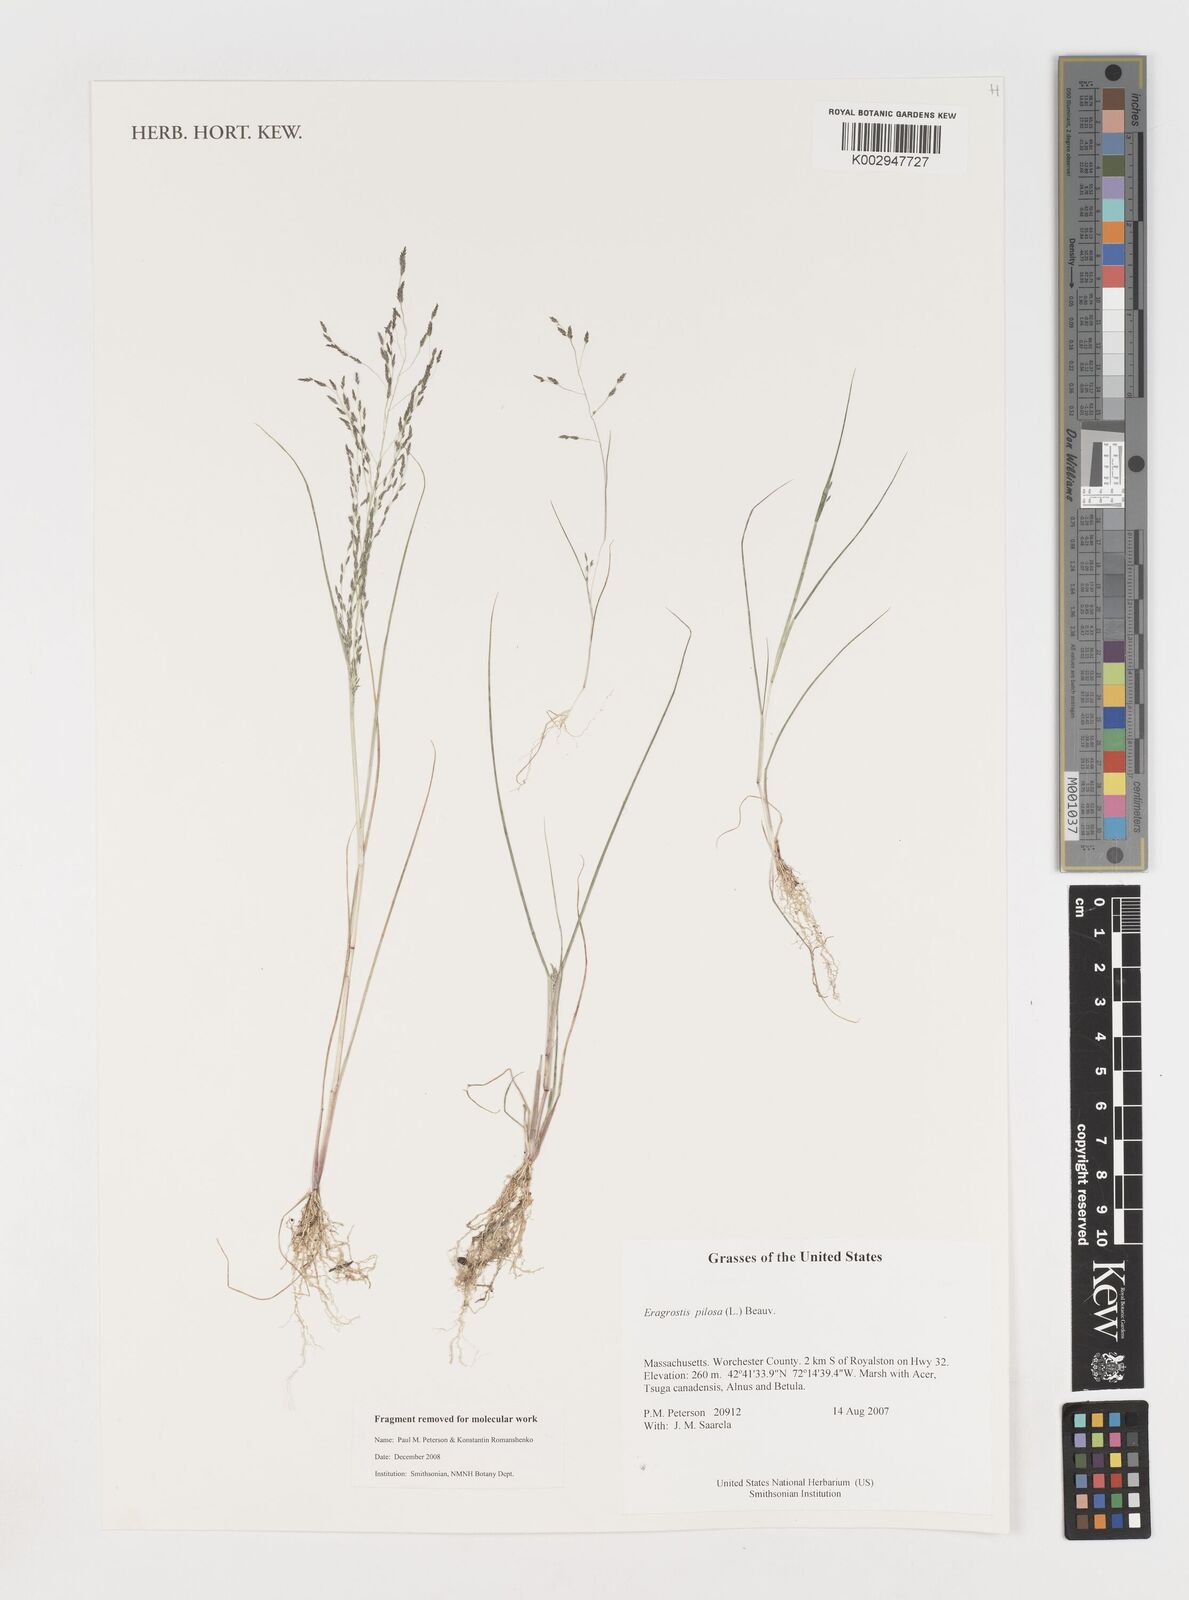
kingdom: Plantae
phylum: Tracheophyta
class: Liliopsida
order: Poales
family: Poaceae
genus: Eragrostis
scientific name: Eragrostis pilosa
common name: Indian lovegrass
